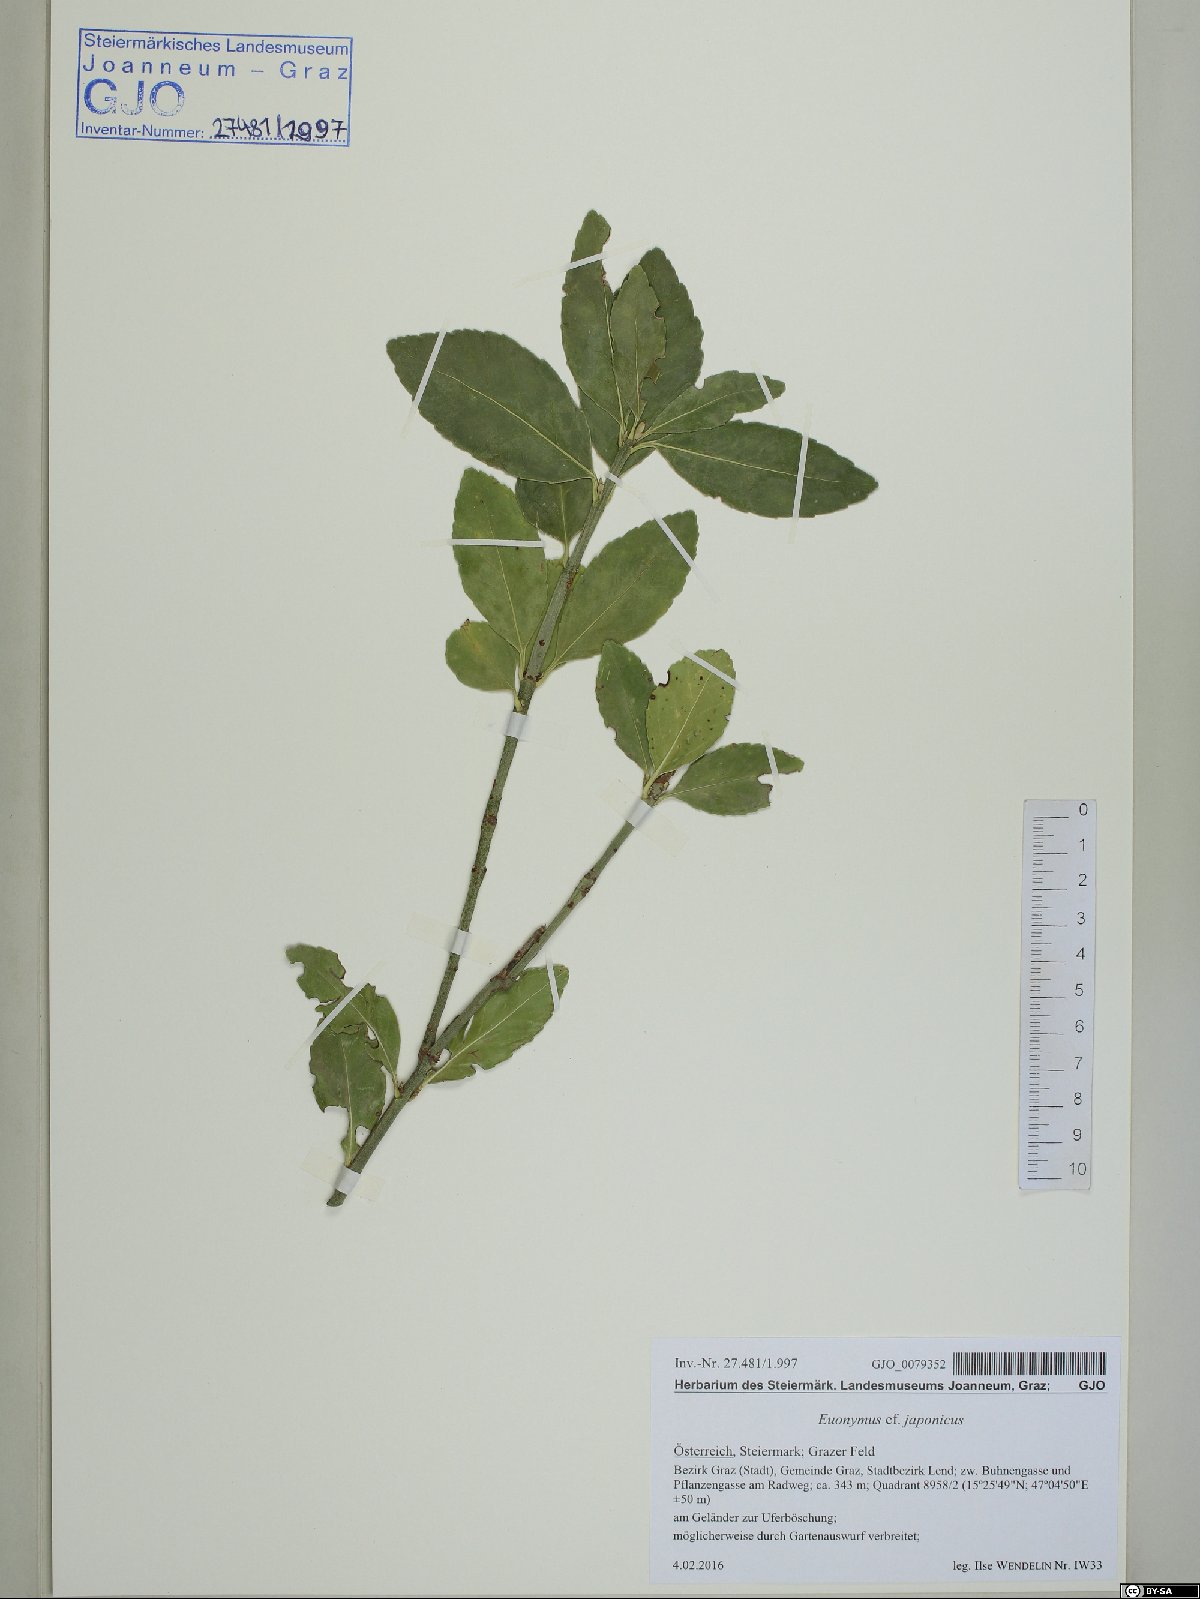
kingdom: Plantae
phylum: Tracheophyta
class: Magnoliopsida
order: Celastrales
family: Celastraceae
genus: Euonymus
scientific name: Euonymus fortunei
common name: Climbing euonymus
